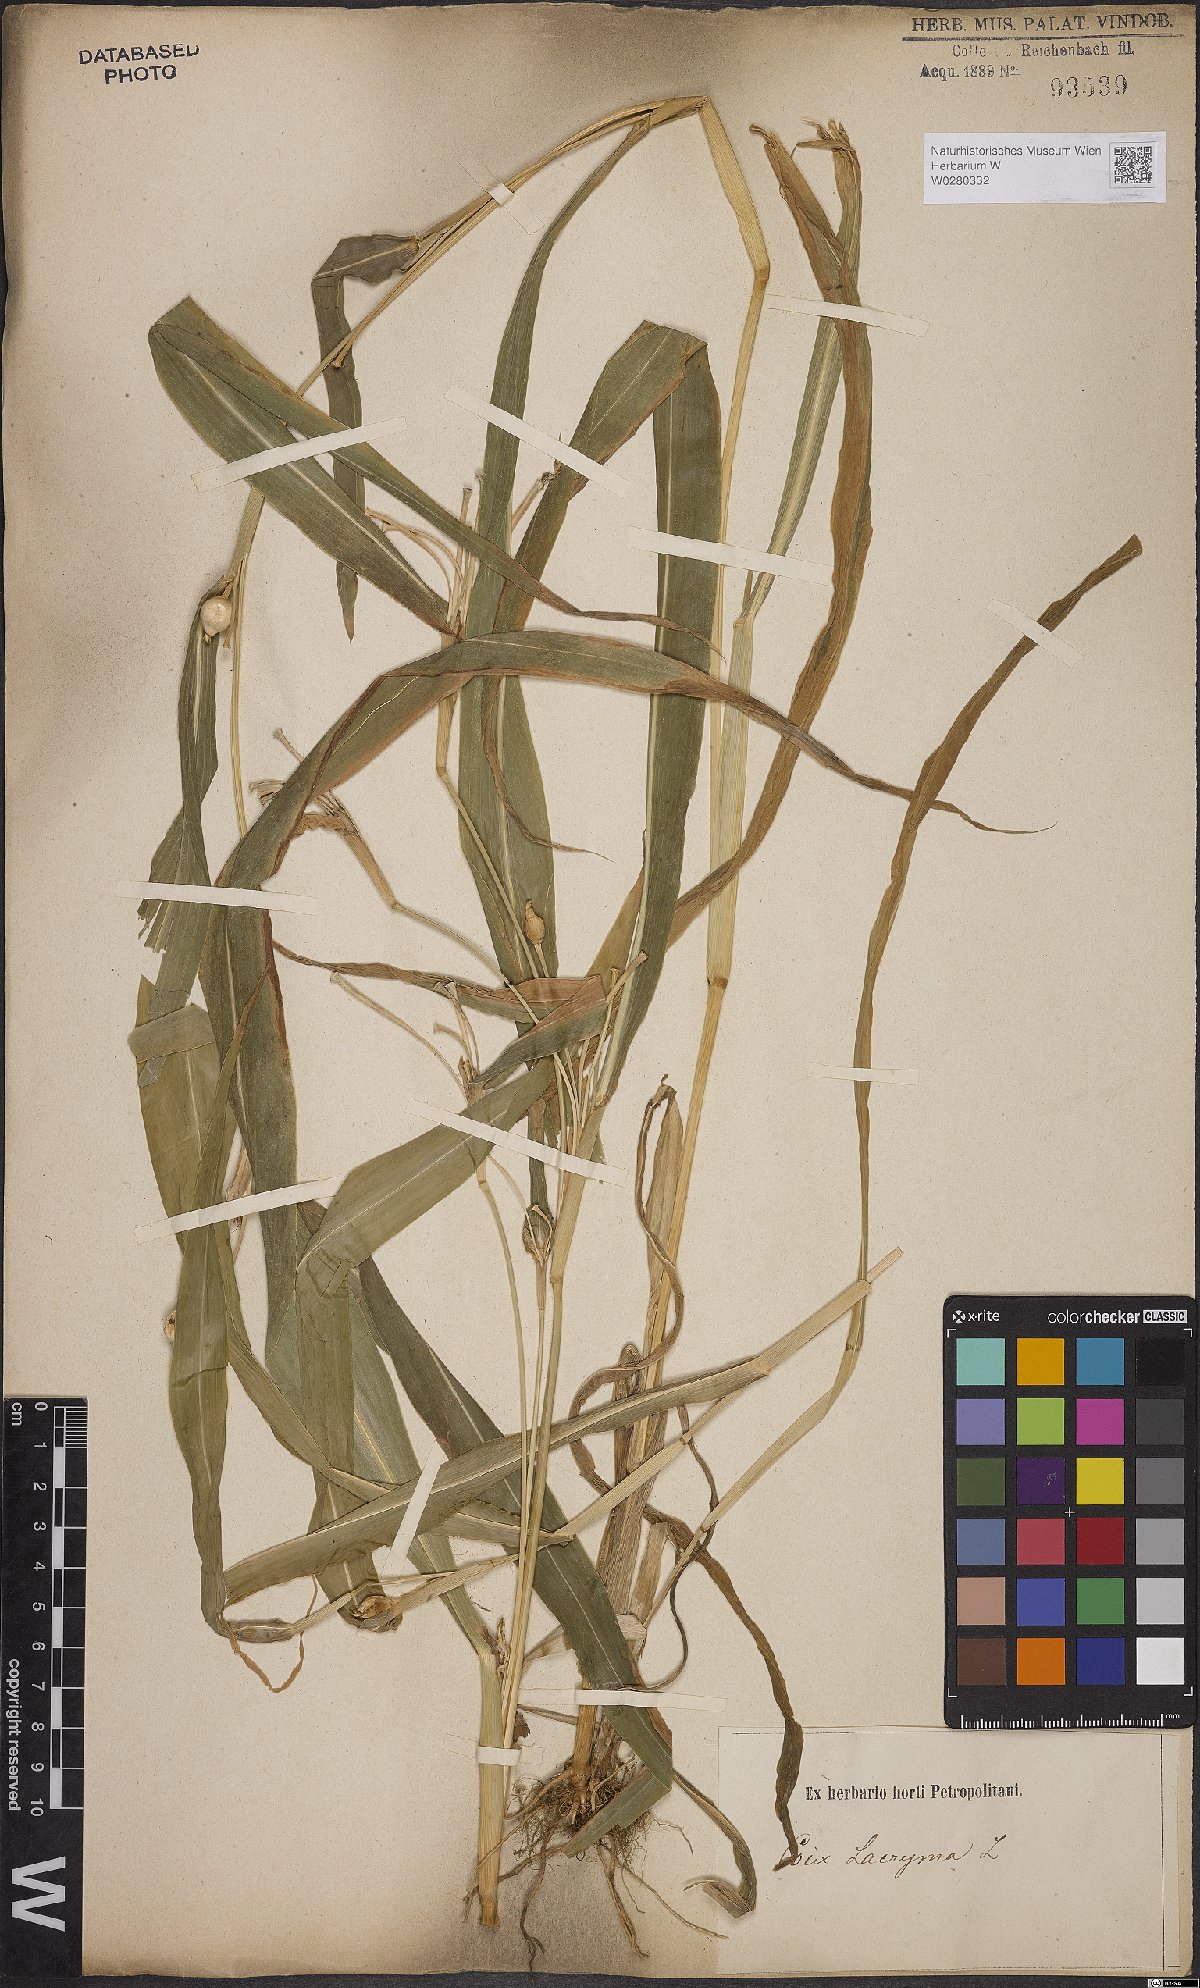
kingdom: Plantae
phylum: Tracheophyta
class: Liliopsida
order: Poales
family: Poaceae
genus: Coix
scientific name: Coix lacryma-jobi
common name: Job's tears
